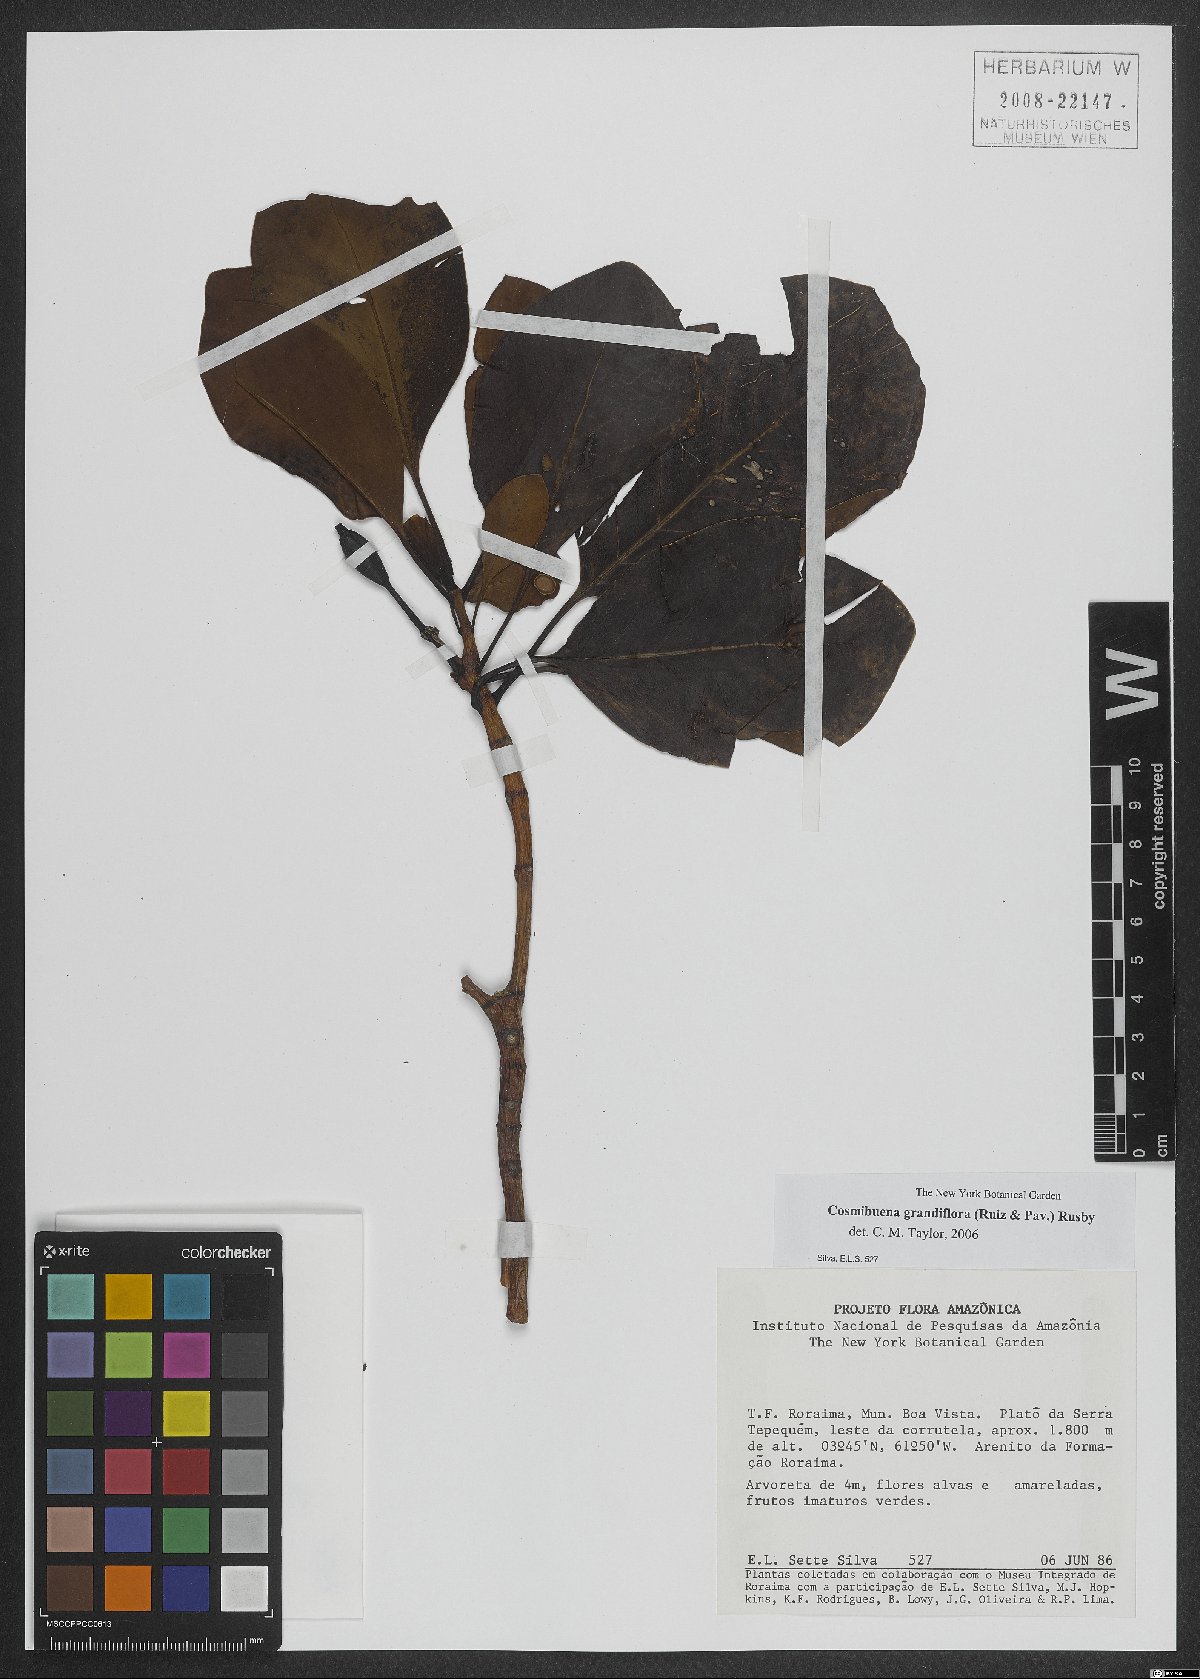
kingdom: Plantae
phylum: Tracheophyta
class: Magnoliopsida
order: Gentianales
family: Rubiaceae
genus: Cosmibuena
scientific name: Cosmibuena grandiflora
